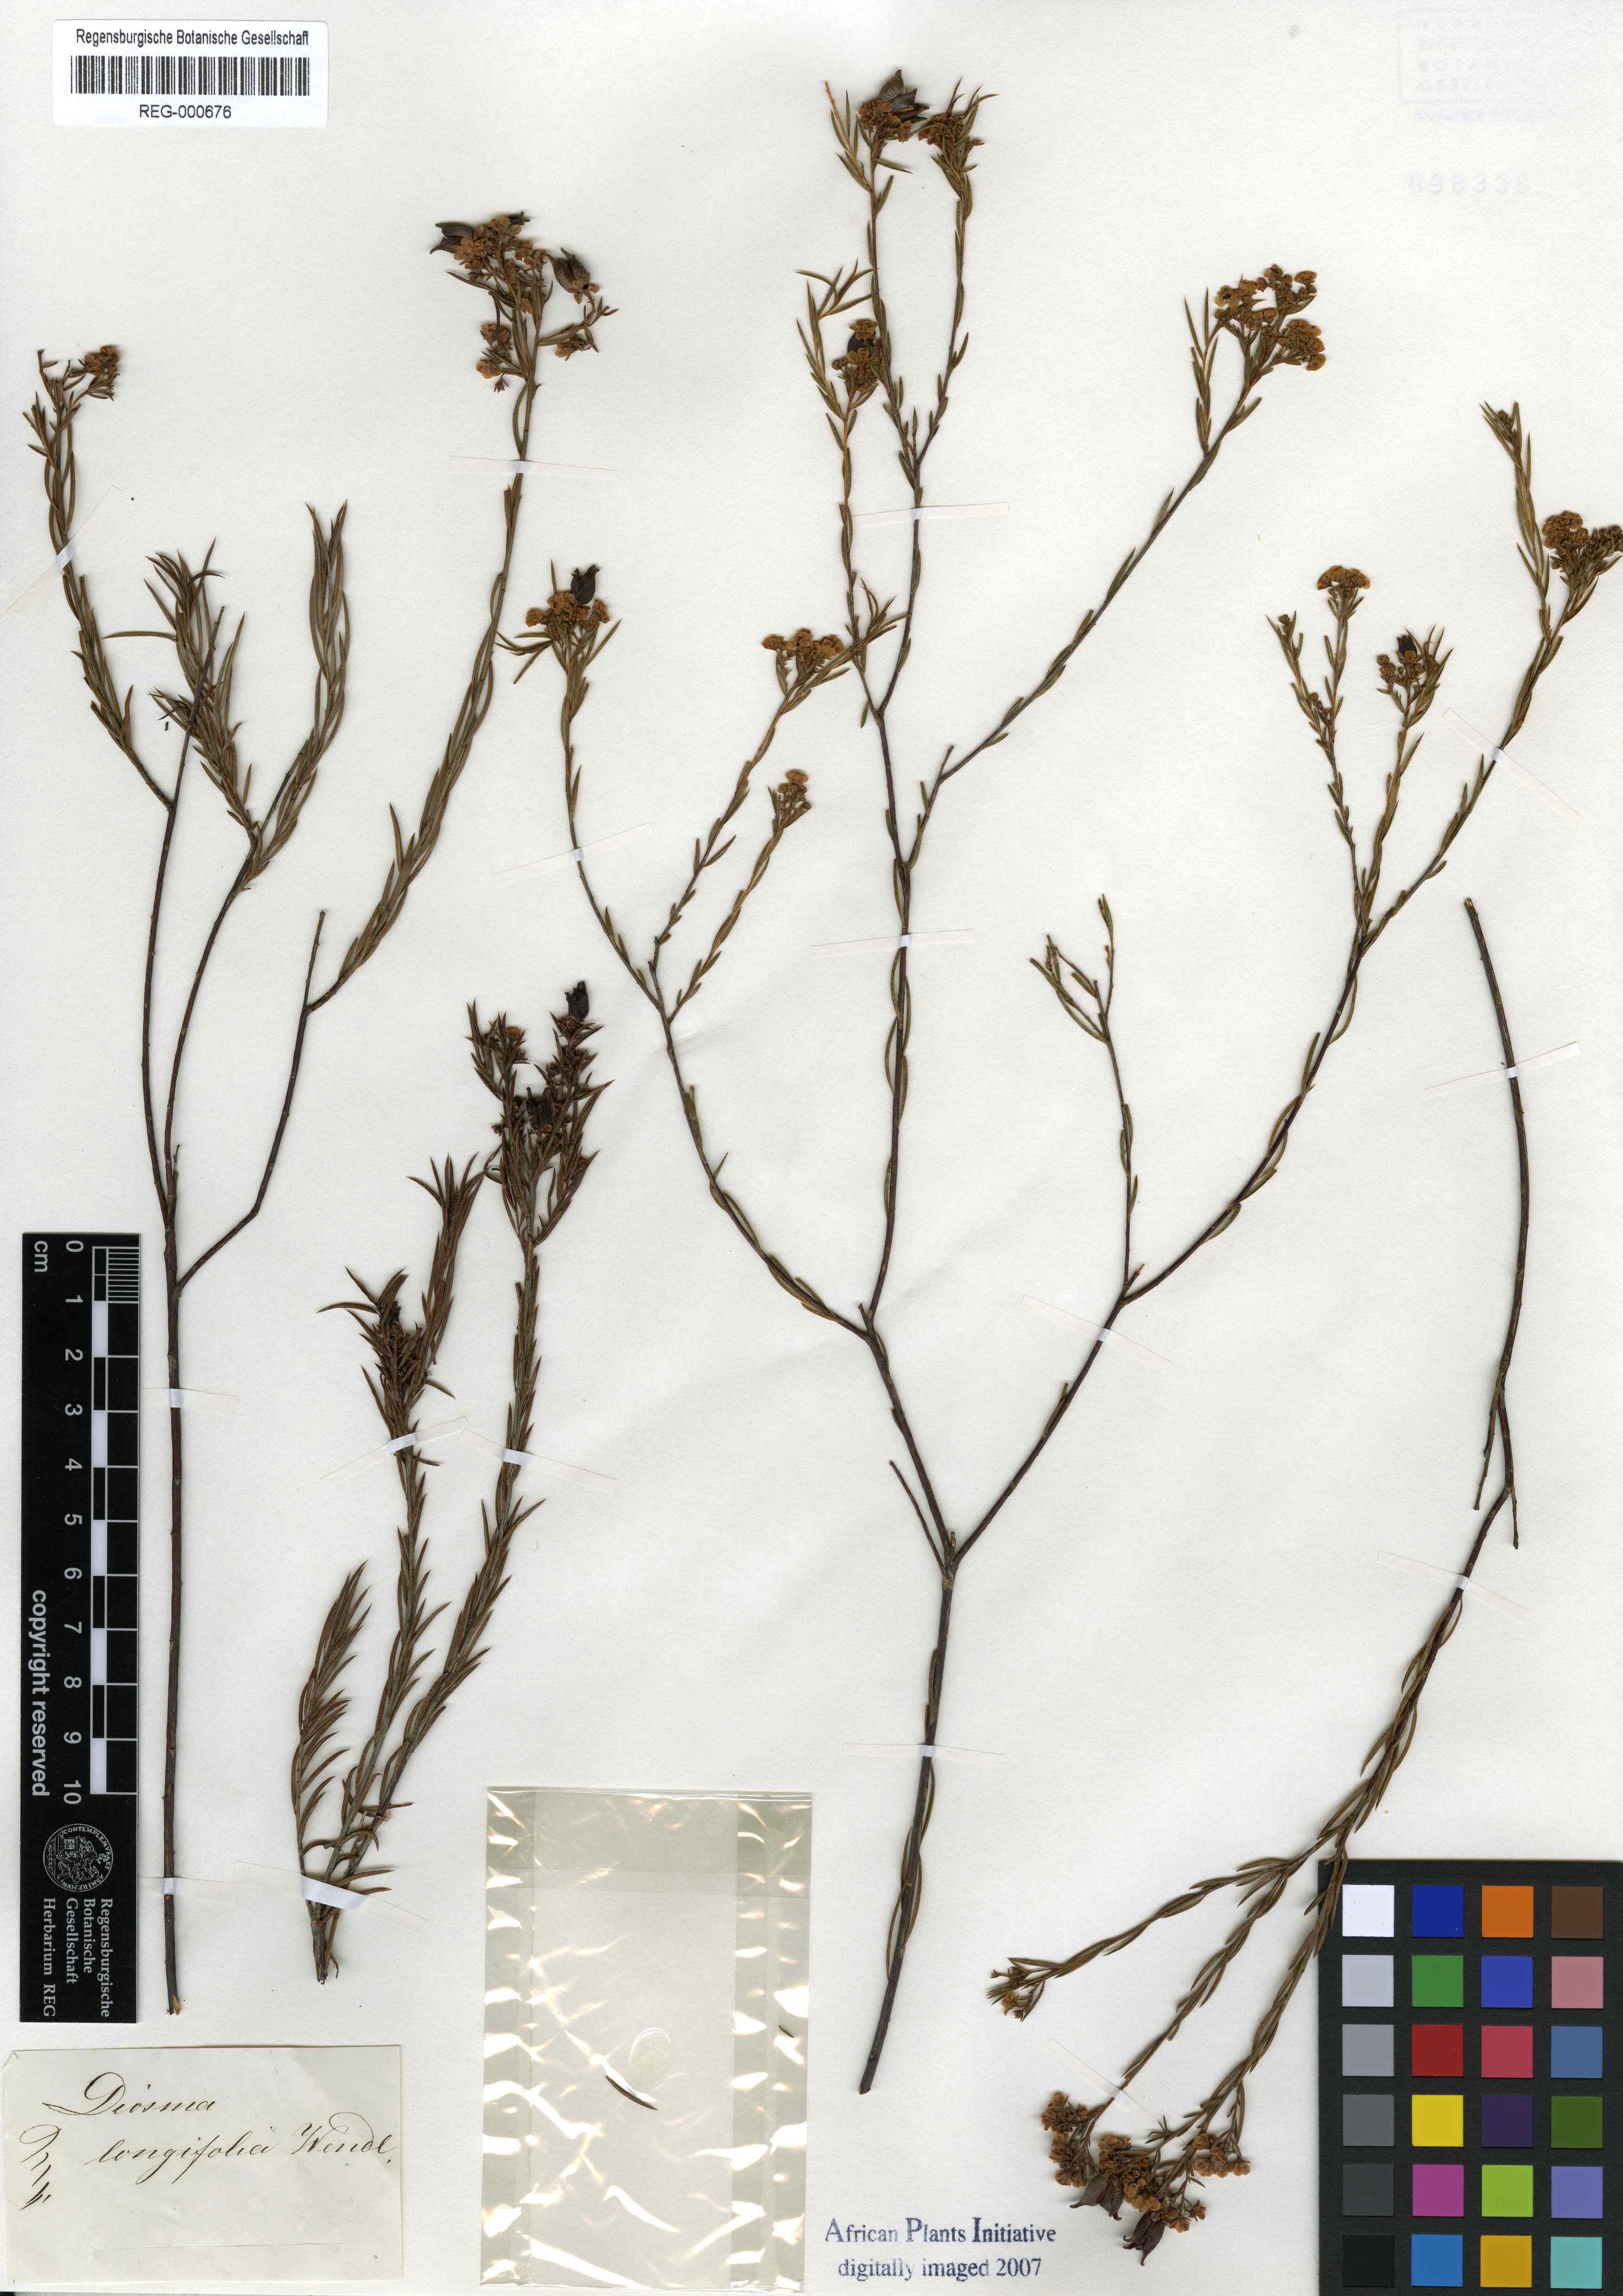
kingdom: Plantae
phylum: Tracheophyta
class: Magnoliopsida
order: Sapindales
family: Rutaceae
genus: Diosma
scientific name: Diosma hirsuta
